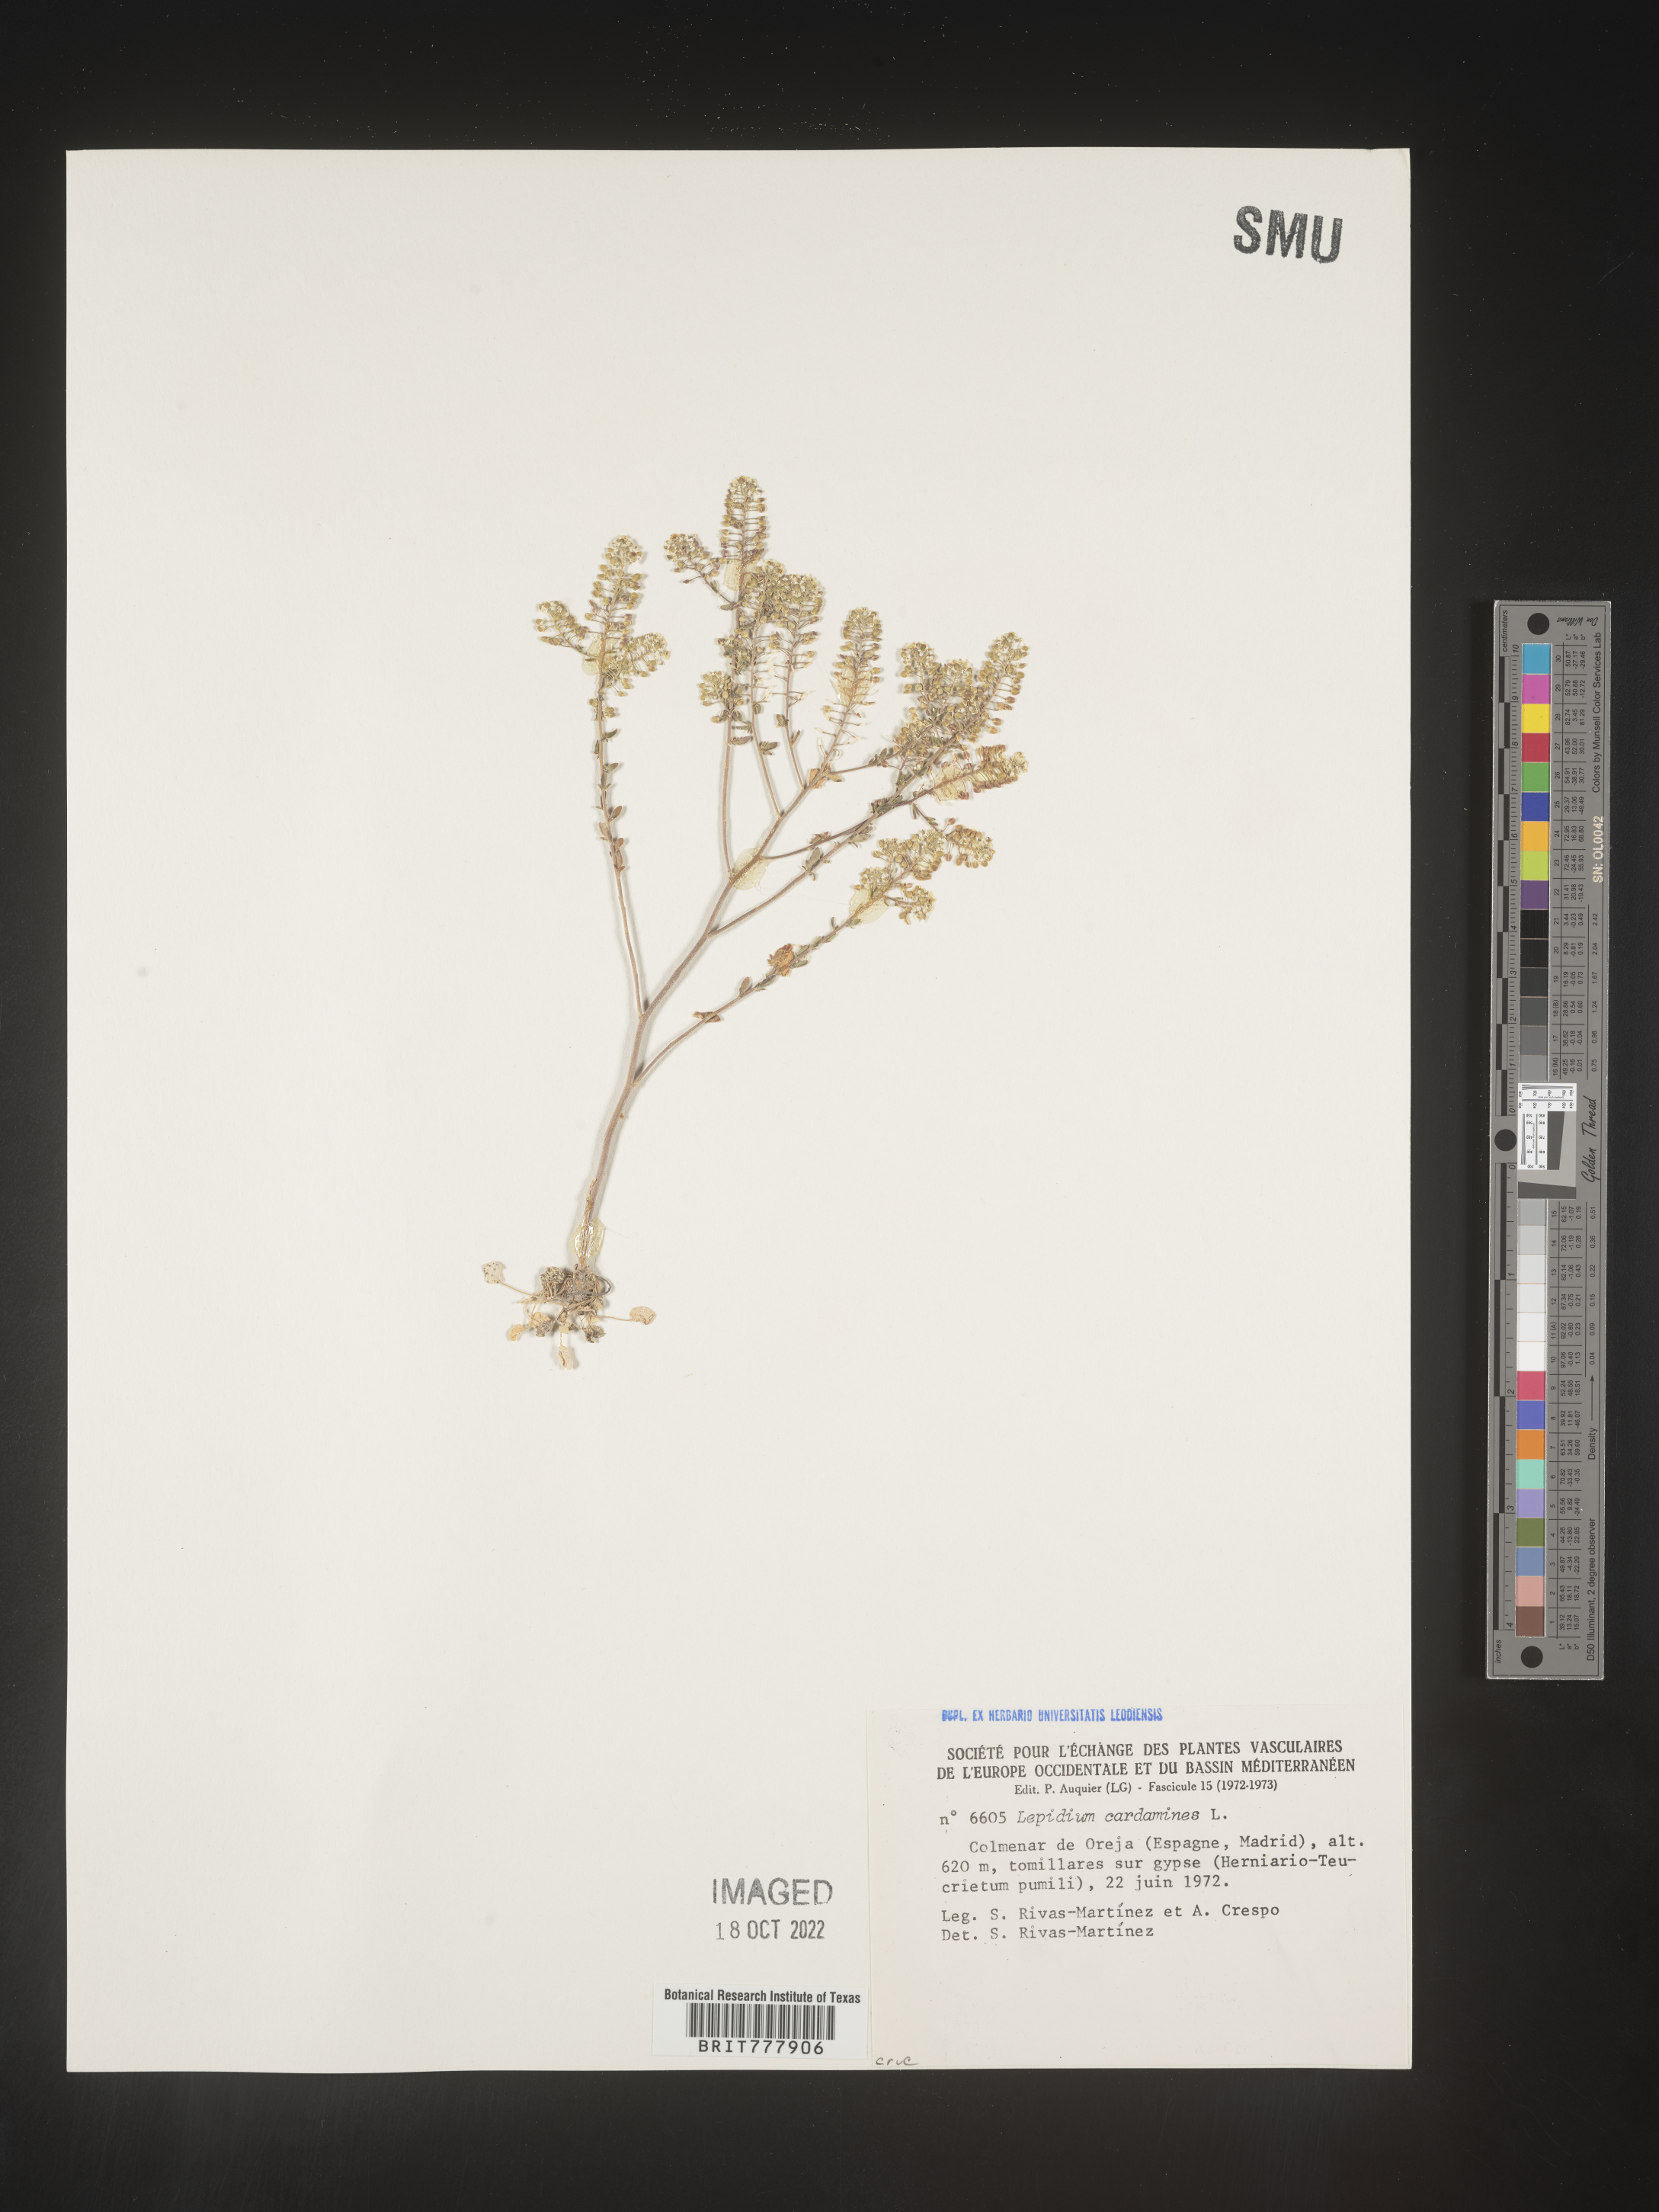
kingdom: Plantae
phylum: Tracheophyta
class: Magnoliopsida
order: Brassicales
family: Brassicaceae
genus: Lepidium
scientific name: Lepidium
